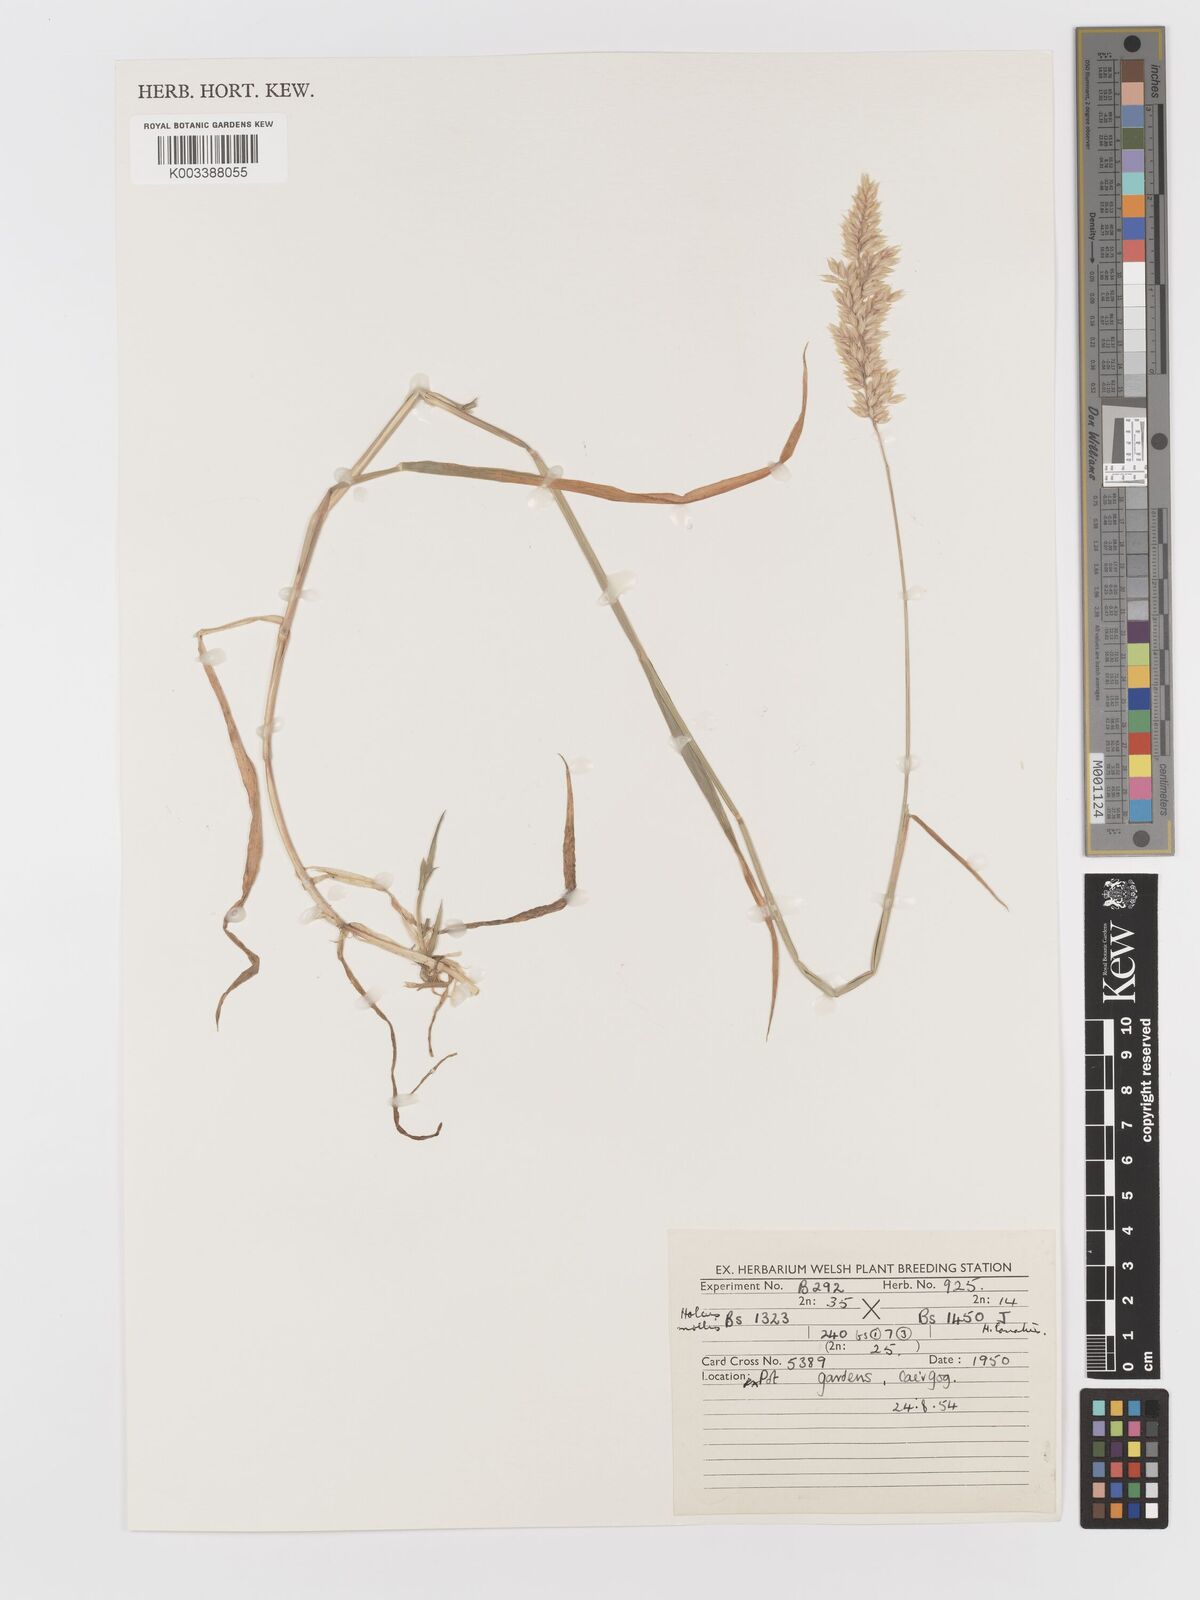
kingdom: Plantae
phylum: Tracheophyta
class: Liliopsida
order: Poales
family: Poaceae
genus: Holcus
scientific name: Holcus lanatus
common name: Yorkshire-fog
